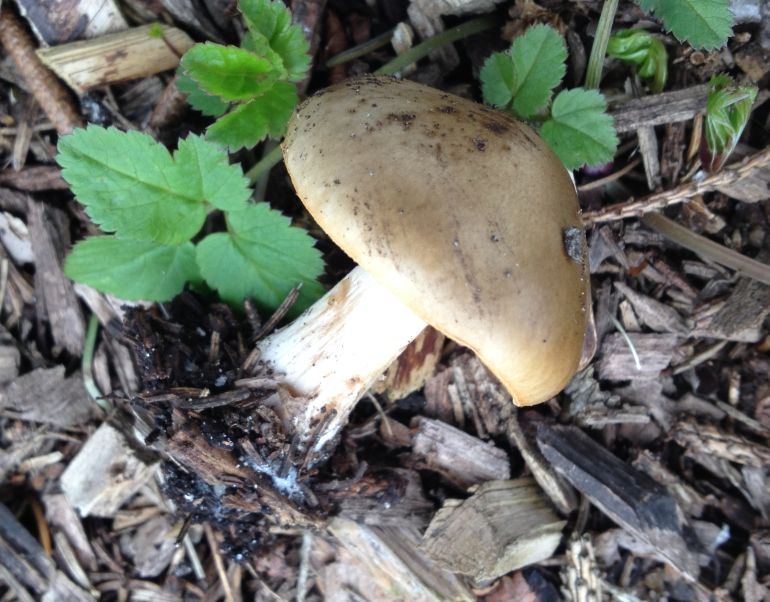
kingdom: Fungi
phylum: Basidiomycota
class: Agaricomycetes
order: Agaricales
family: Tricholomataceae
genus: Melanoleuca
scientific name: Melanoleuca cognata
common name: gyldengrå munkehat
